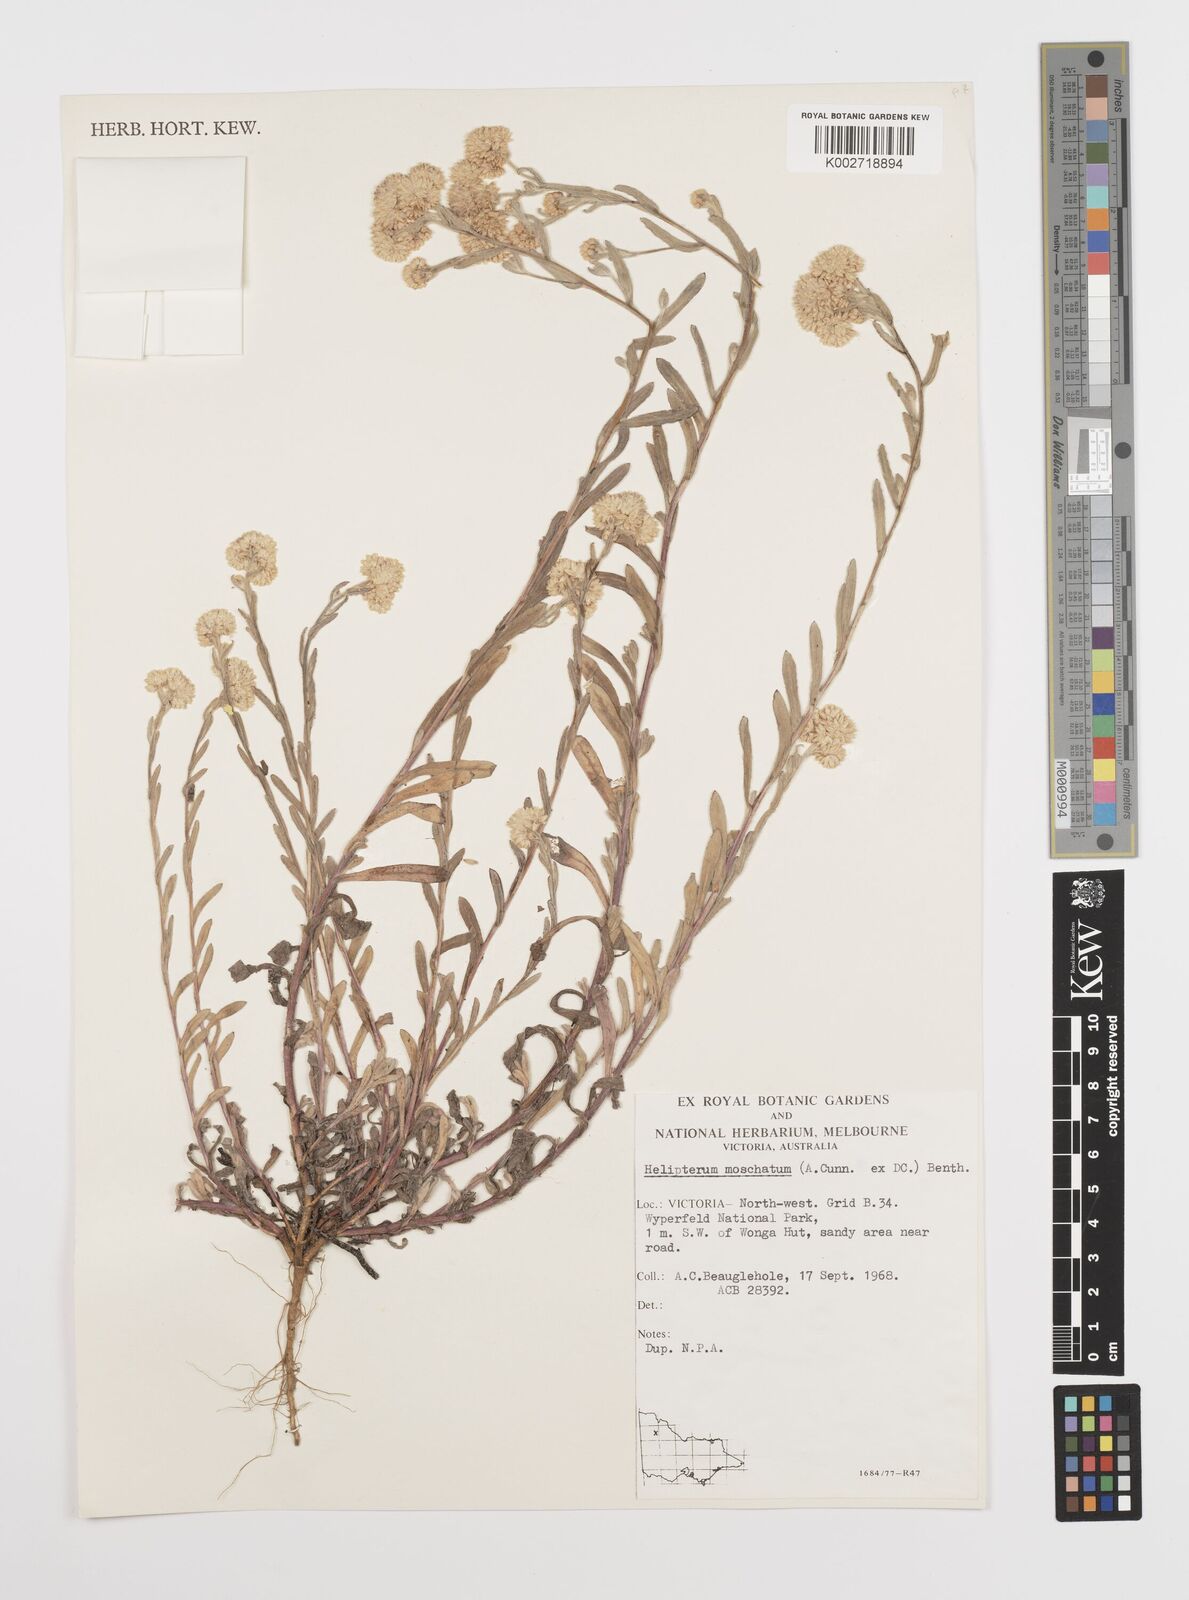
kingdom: Plantae
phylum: Tracheophyta
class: Magnoliopsida
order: Asterales
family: Asteraceae
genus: Rhodanthe
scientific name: Rhodanthe moschata
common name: Musk sunray
